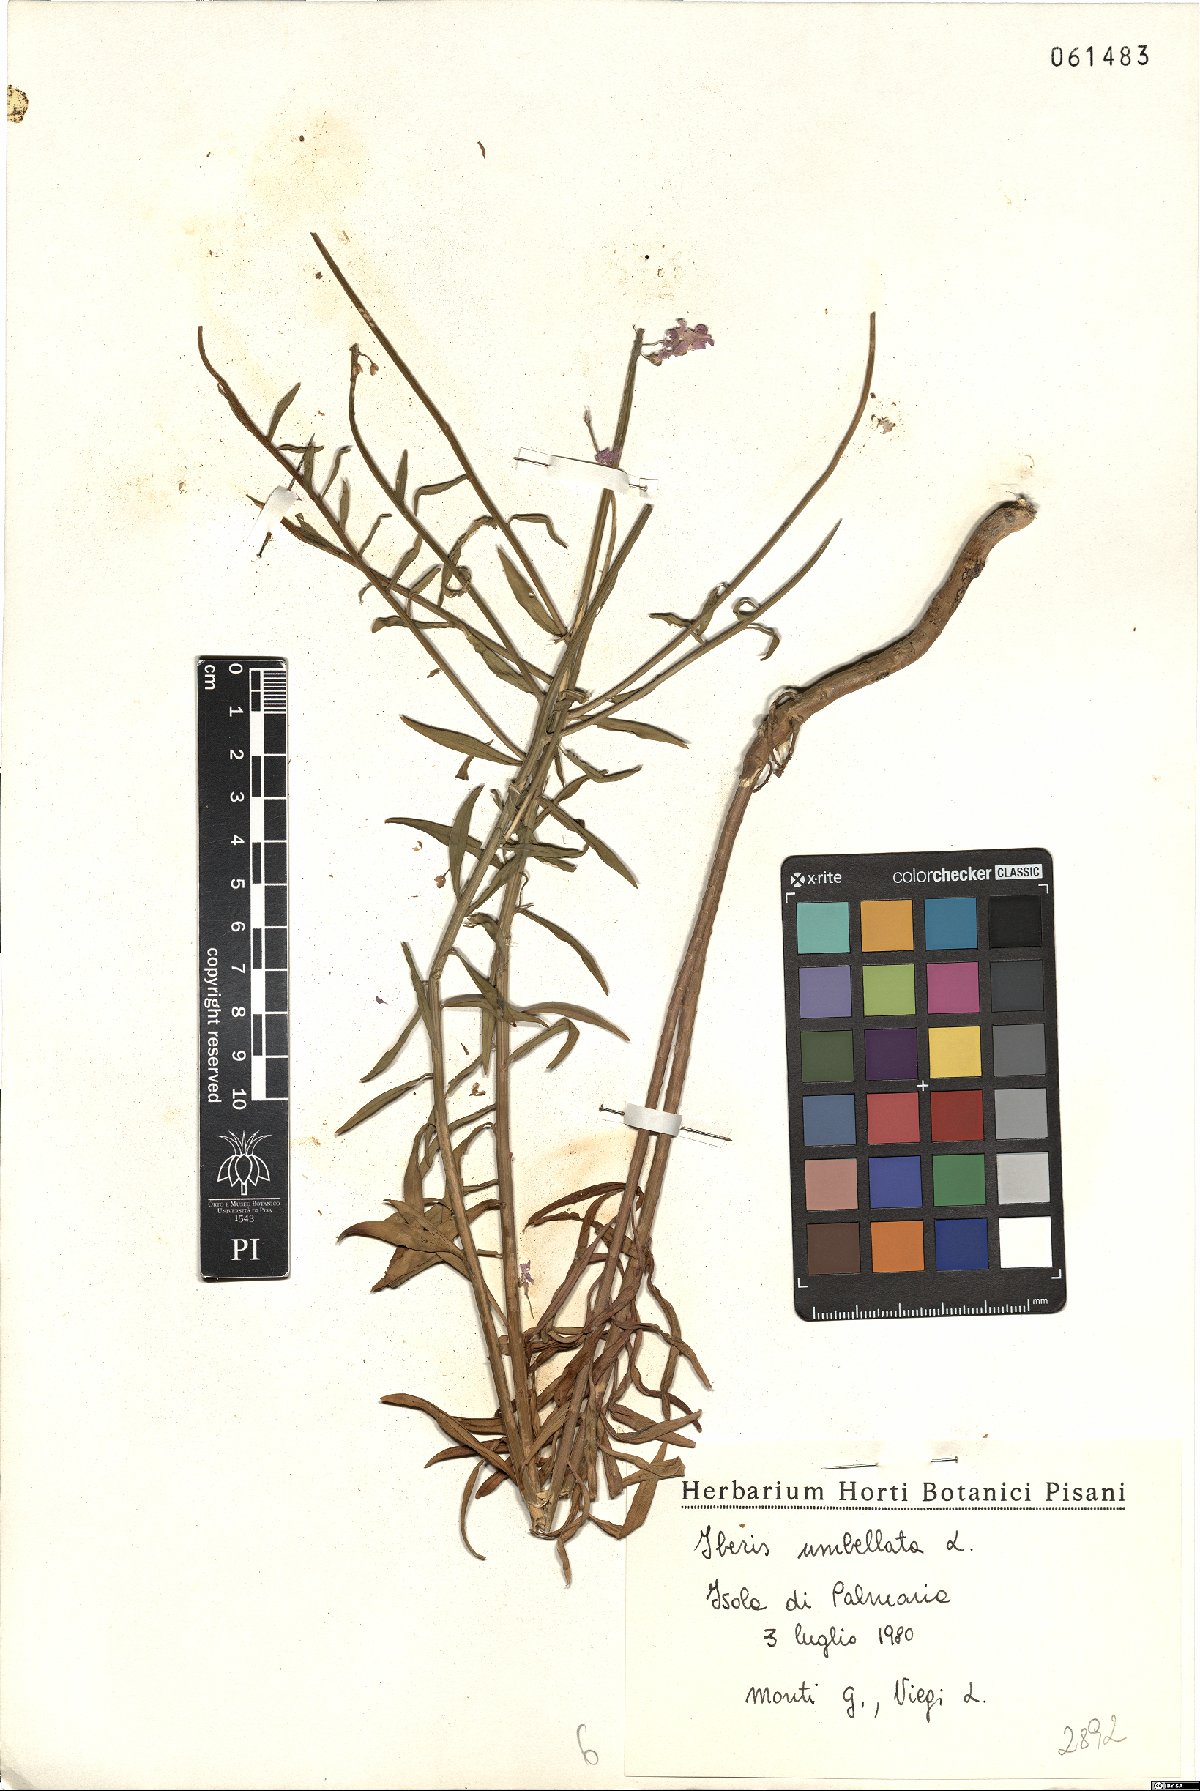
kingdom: Plantae
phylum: Tracheophyta
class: Magnoliopsida
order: Brassicales
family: Brassicaceae
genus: Iberis
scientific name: Iberis umbellata
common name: Globe candytuft
